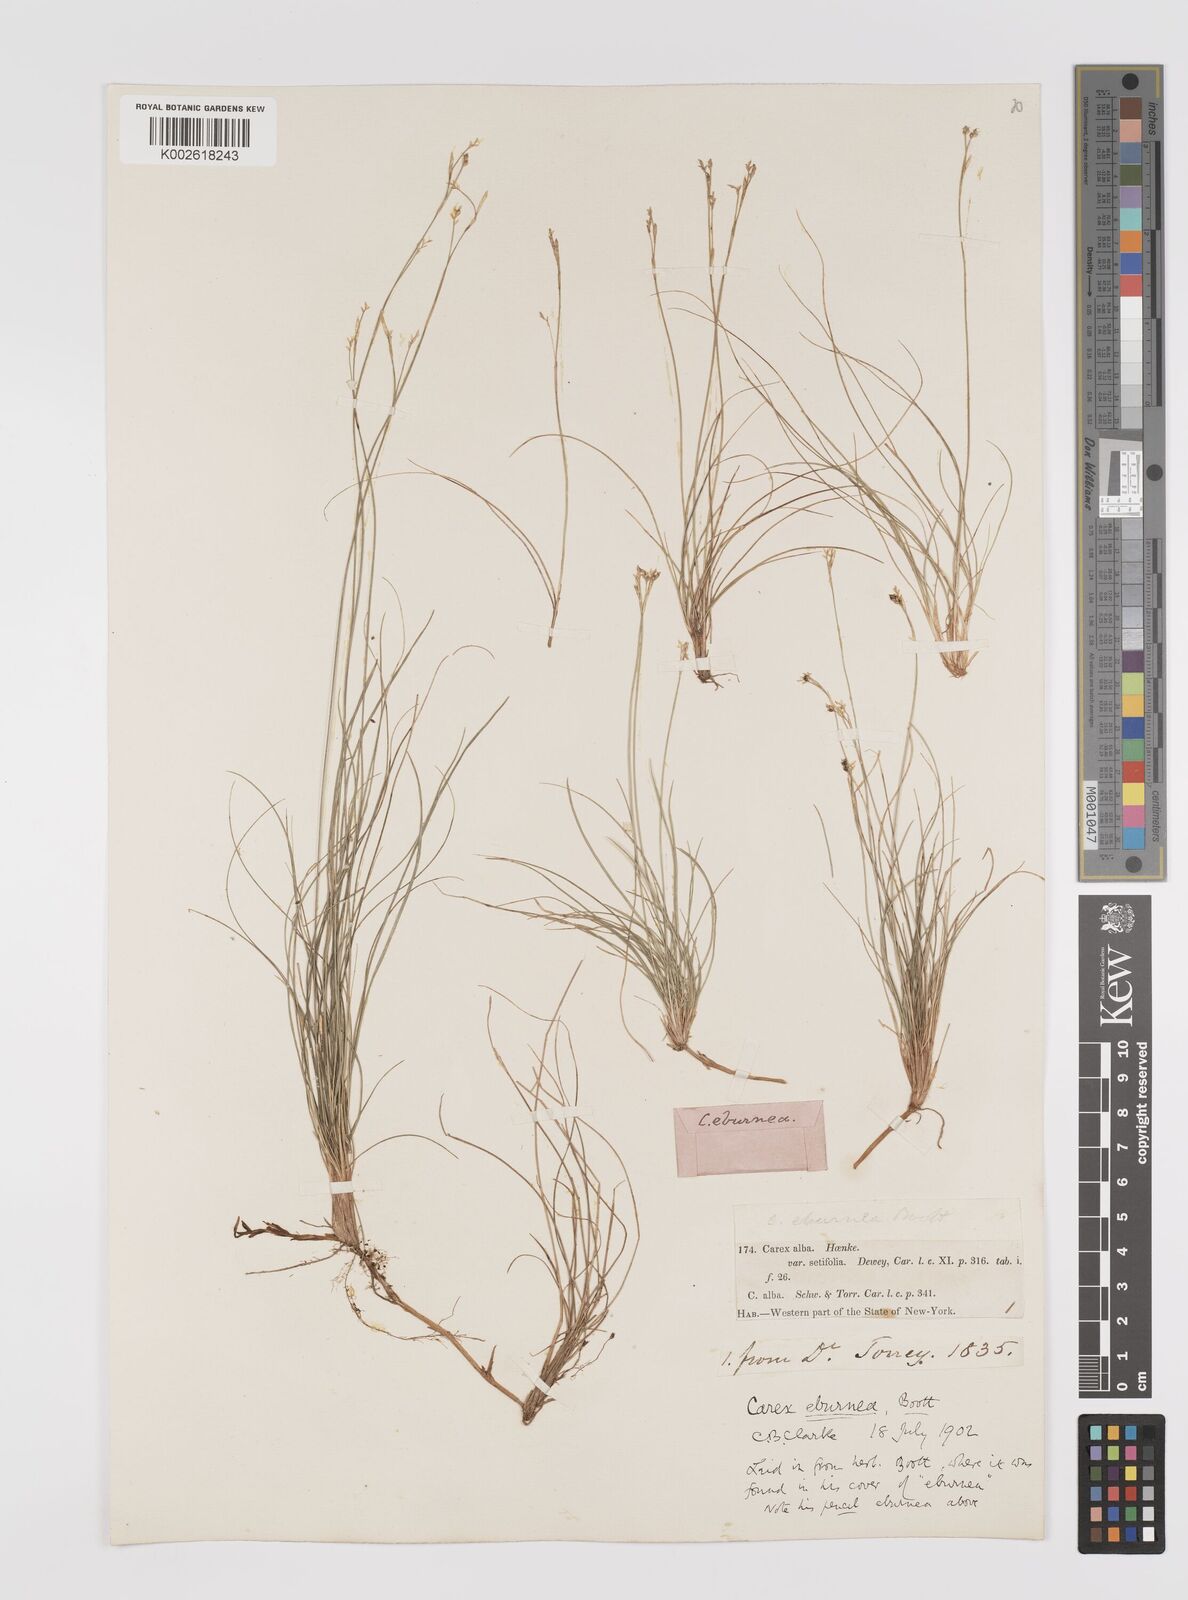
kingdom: Plantae
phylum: Tracheophyta
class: Liliopsida
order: Poales
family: Cyperaceae
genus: Carex
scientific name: Carex eburnea
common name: Bristle-leaved sedge
